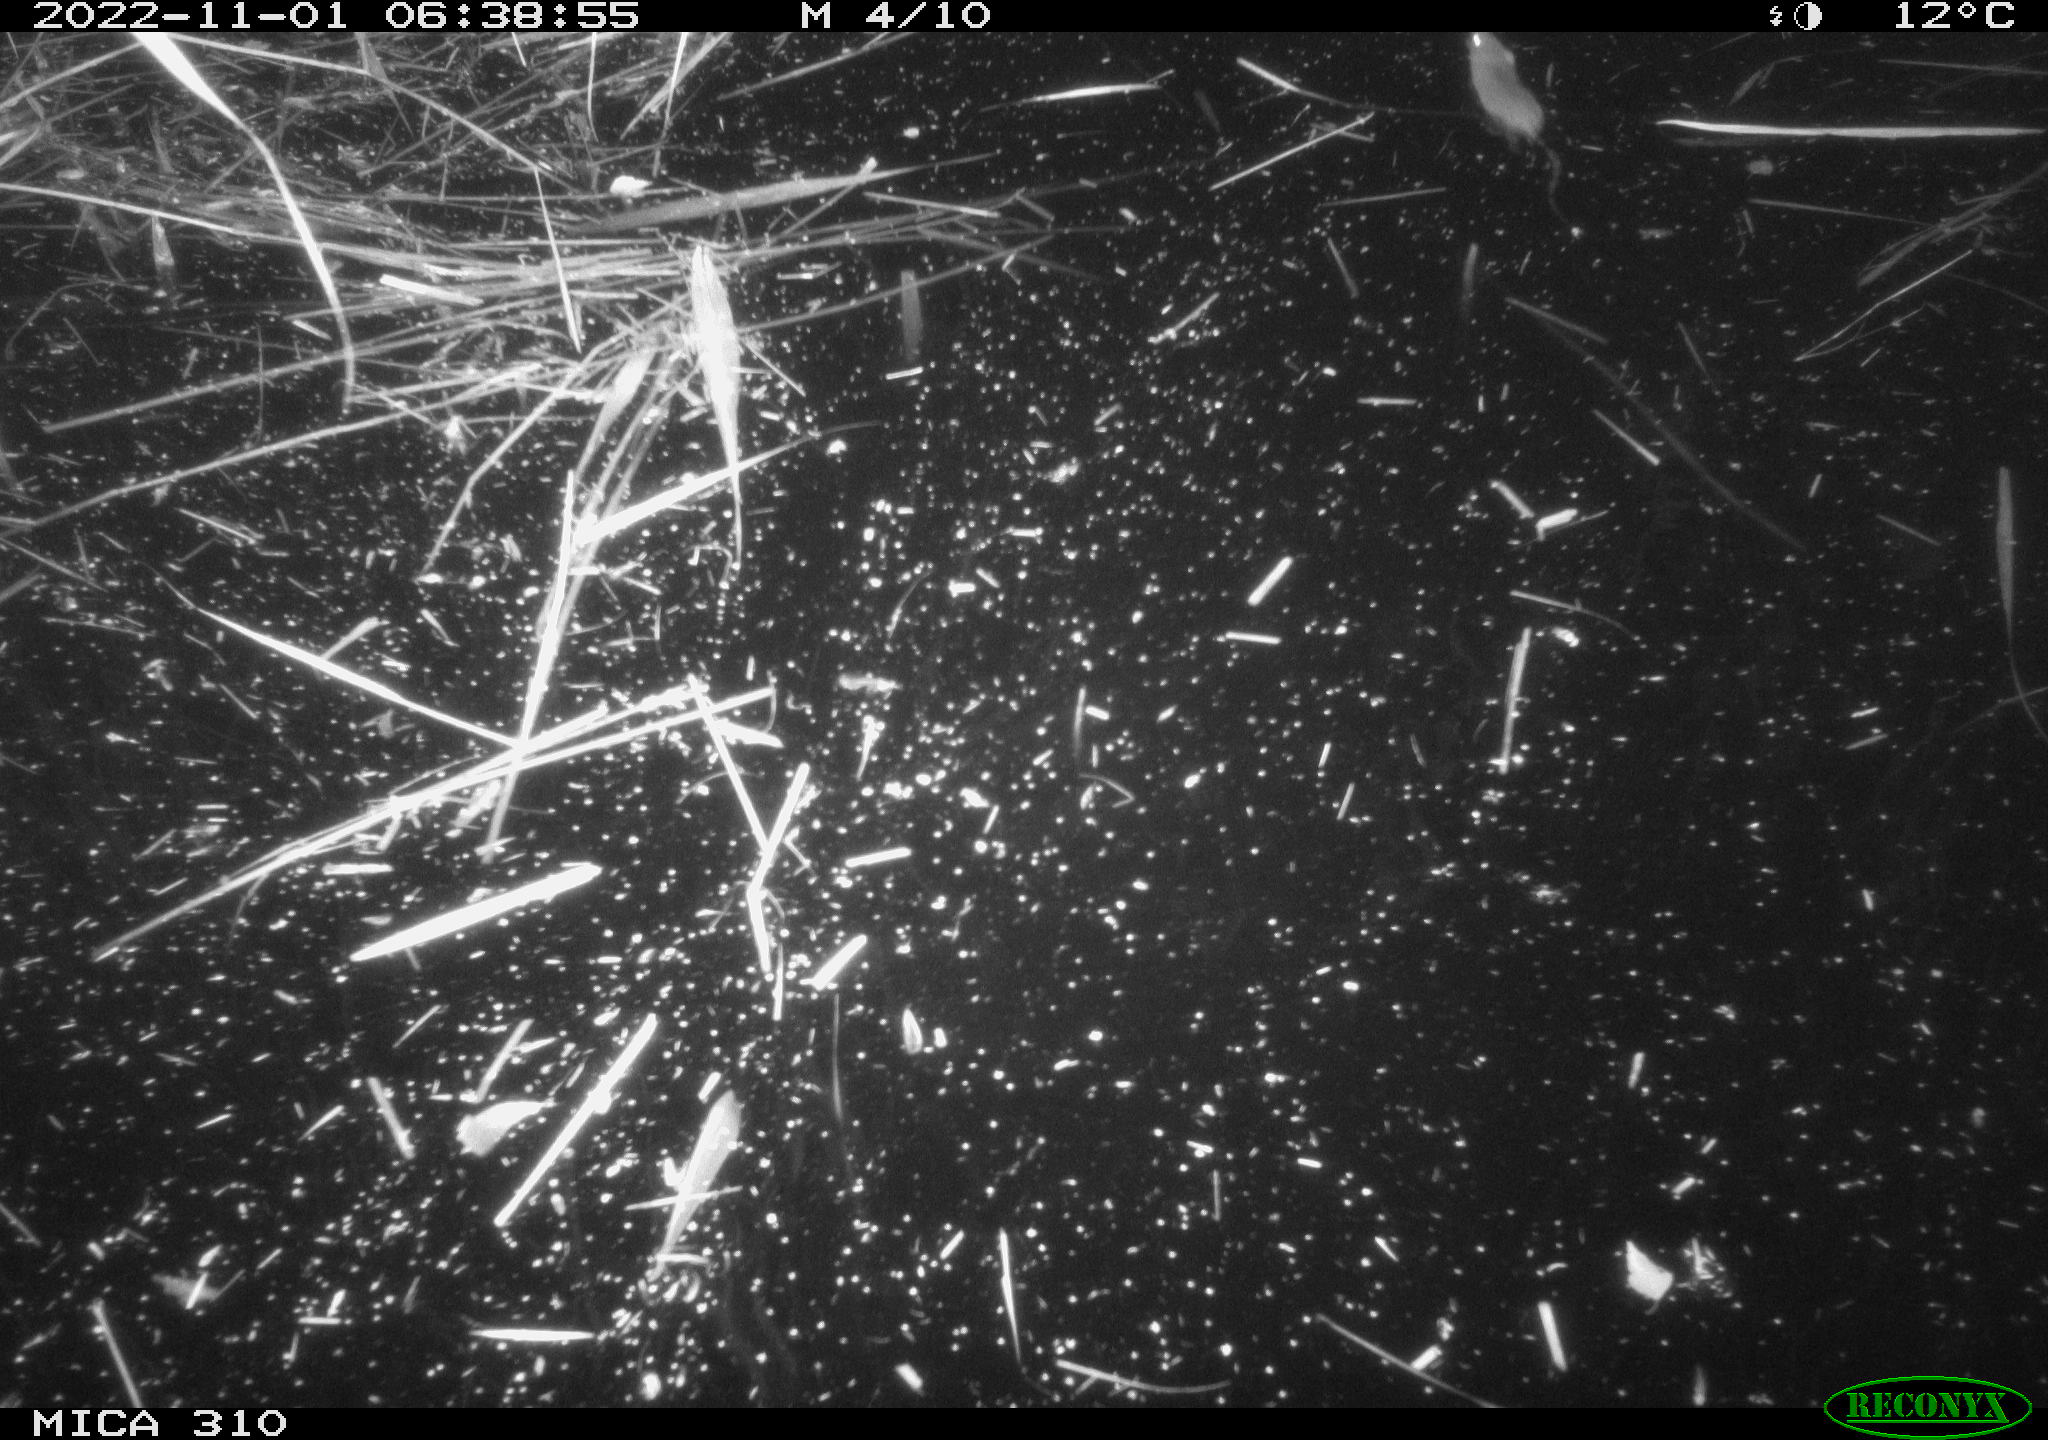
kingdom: Animalia
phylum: Chordata
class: Mammalia
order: Rodentia
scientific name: Rodentia
